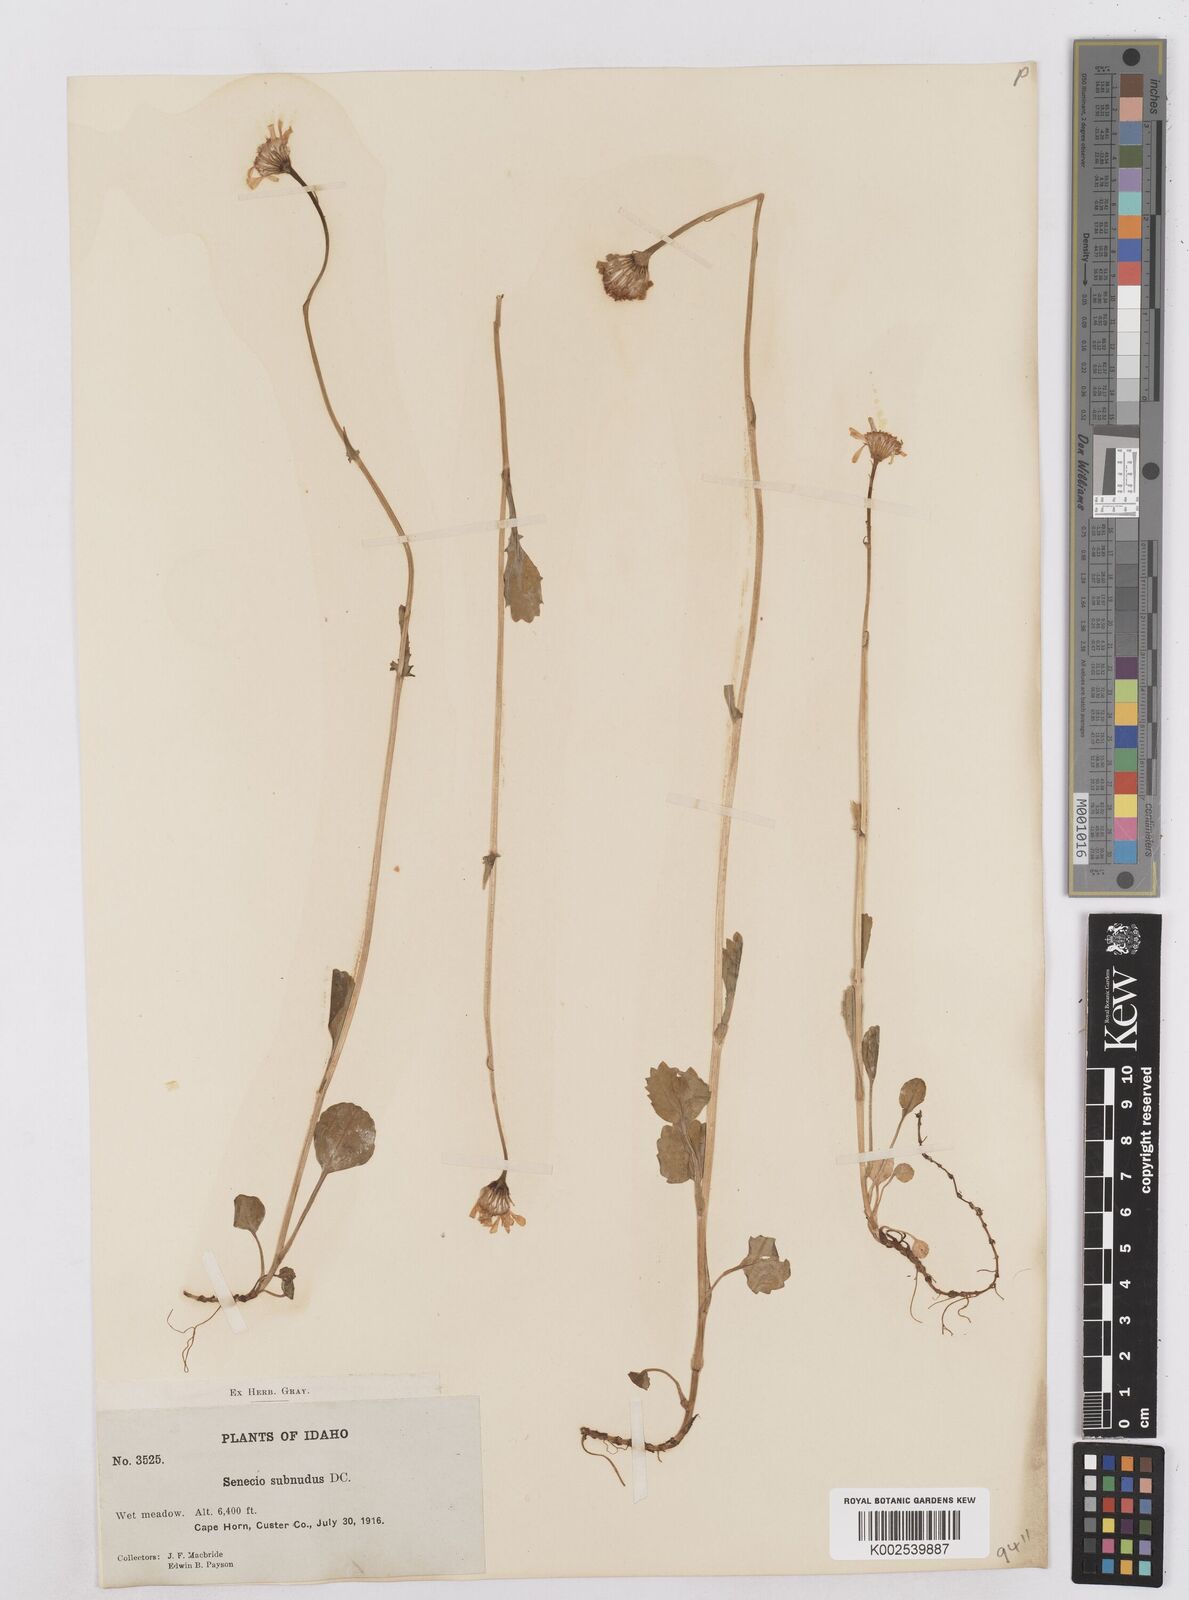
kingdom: Plantae
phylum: Tracheophyta
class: Magnoliopsida
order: Asterales
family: Asteraceae
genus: Packera
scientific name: Packera aurea
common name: Golden groundsel
